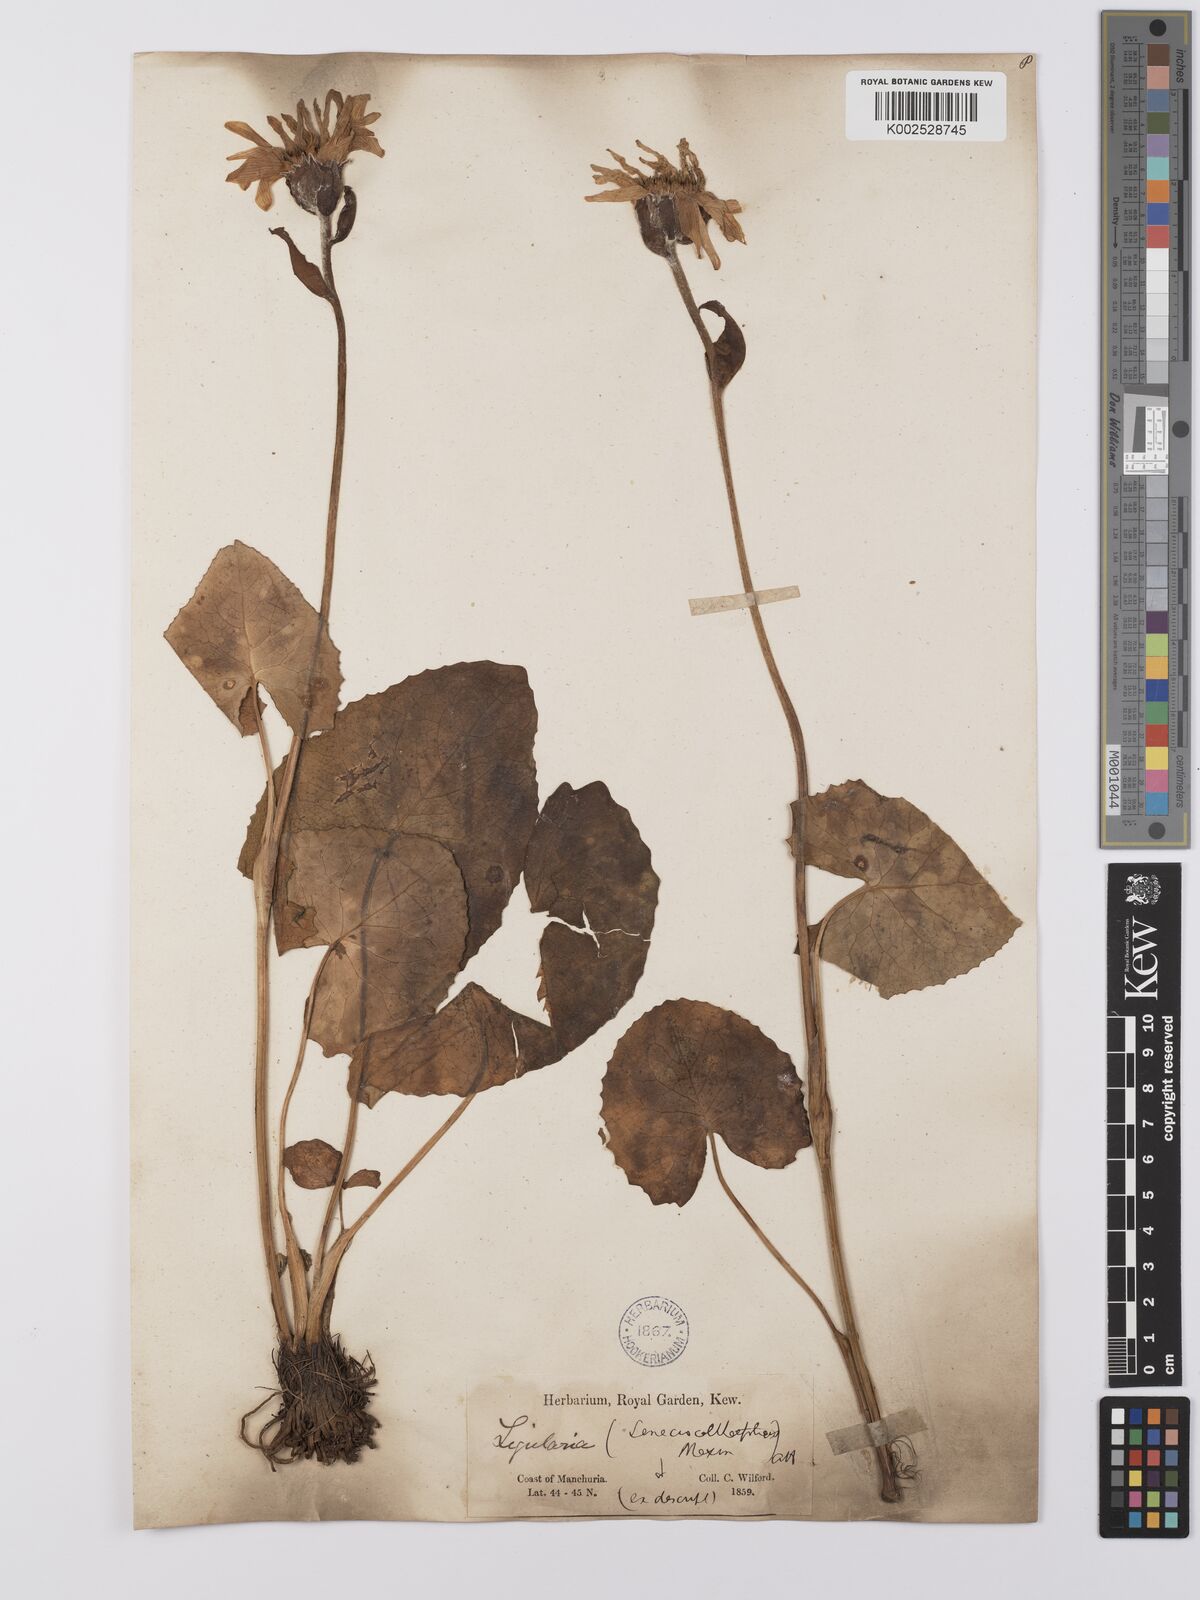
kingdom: Plantae
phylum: Tracheophyta
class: Magnoliopsida
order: Asterales
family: Asteraceae
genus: Ligularia
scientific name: Ligularia calthifolia
